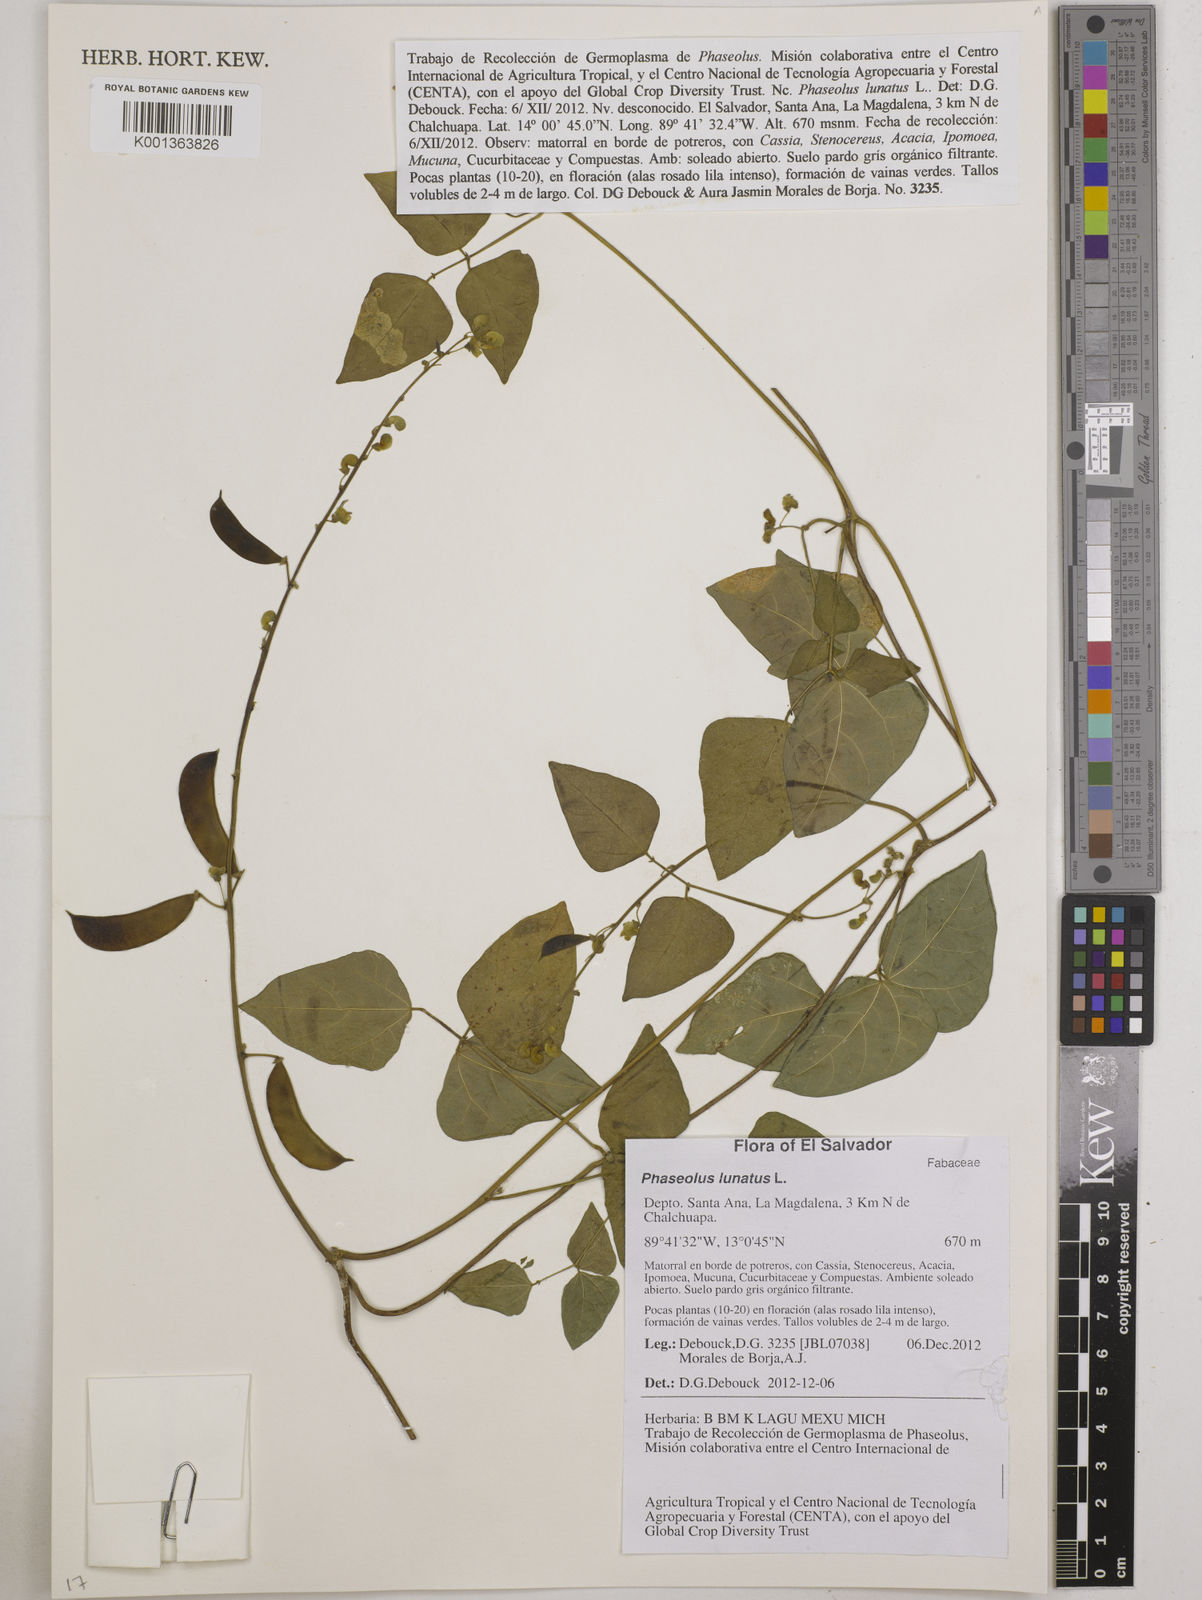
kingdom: Plantae
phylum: Tracheophyta
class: Magnoliopsida
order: Fabales
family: Fabaceae
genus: Phaseolus
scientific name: Phaseolus lunatus
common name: Sieva bean
